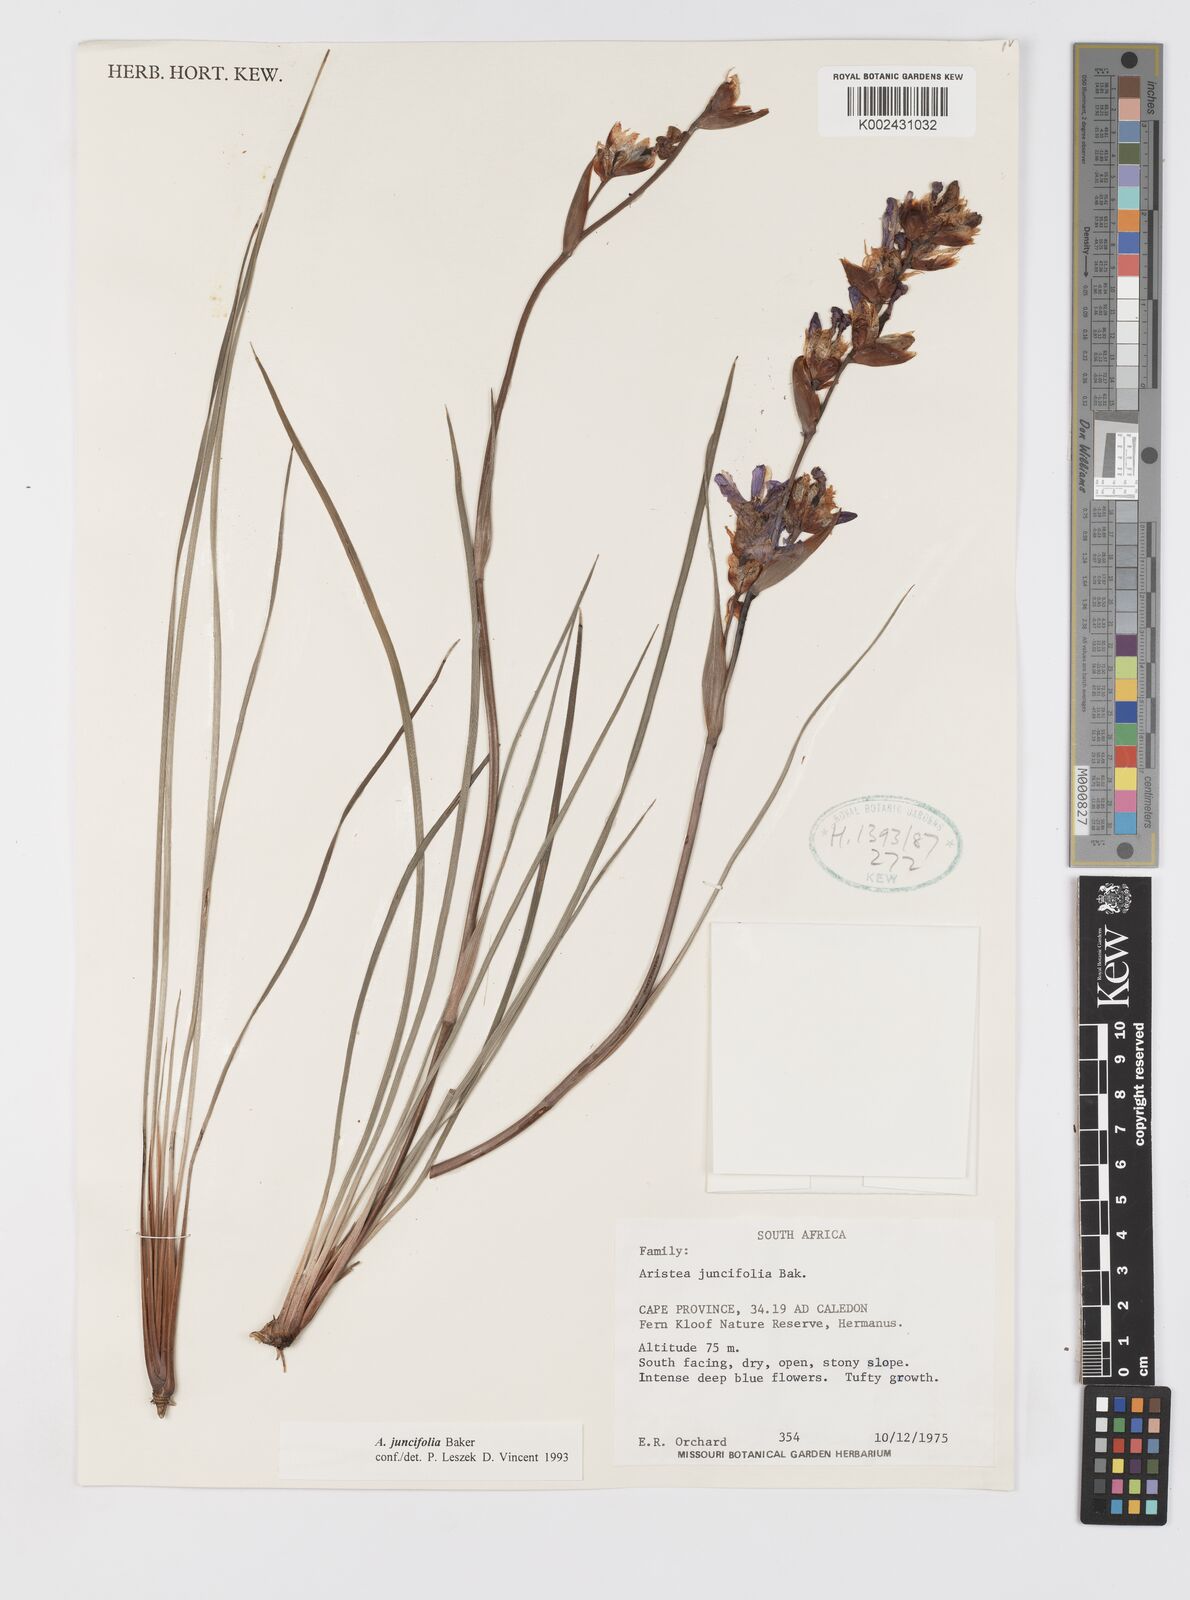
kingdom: Plantae
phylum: Tracheophyta
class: Liliopsida
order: Asparagales
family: Iridaceae
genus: Aristea
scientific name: Aristea juncifolia
